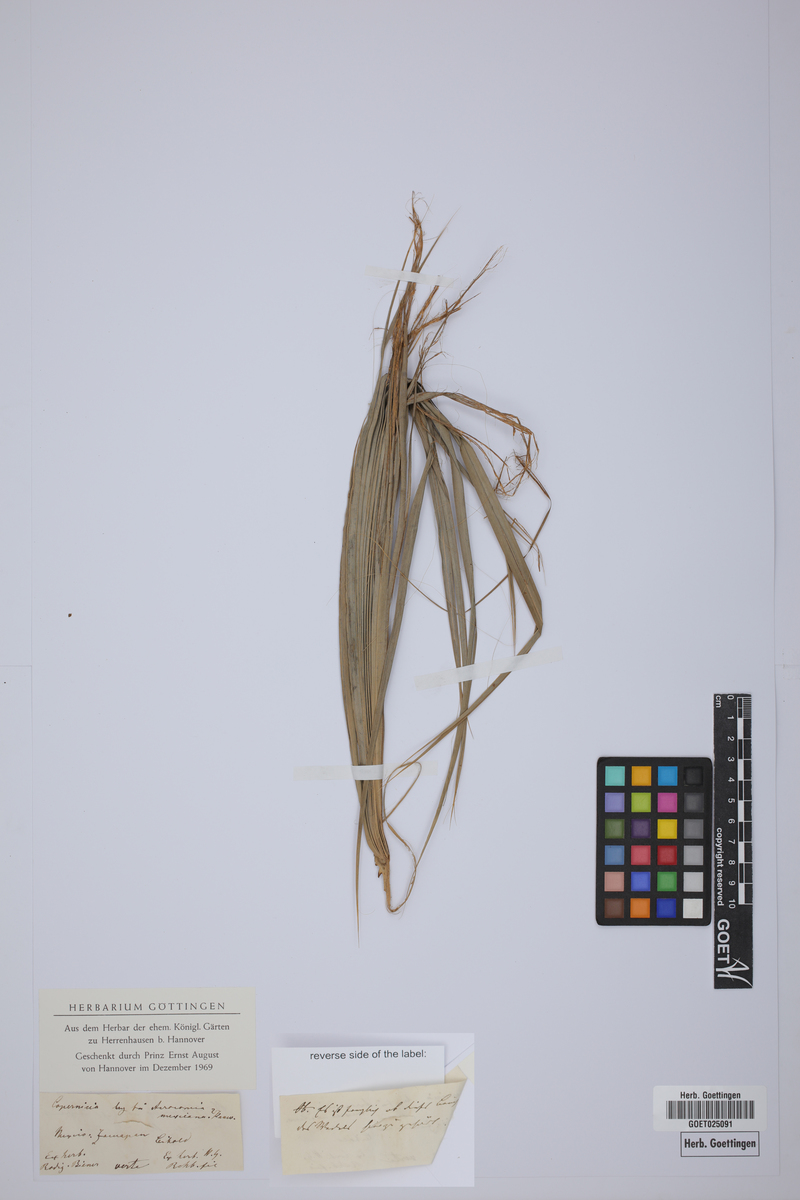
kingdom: Plantae
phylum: Tracheophyta
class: Liliopsida
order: Arecales
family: Arecaceae
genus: Acrocomia
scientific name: Acrocomia aculeata
